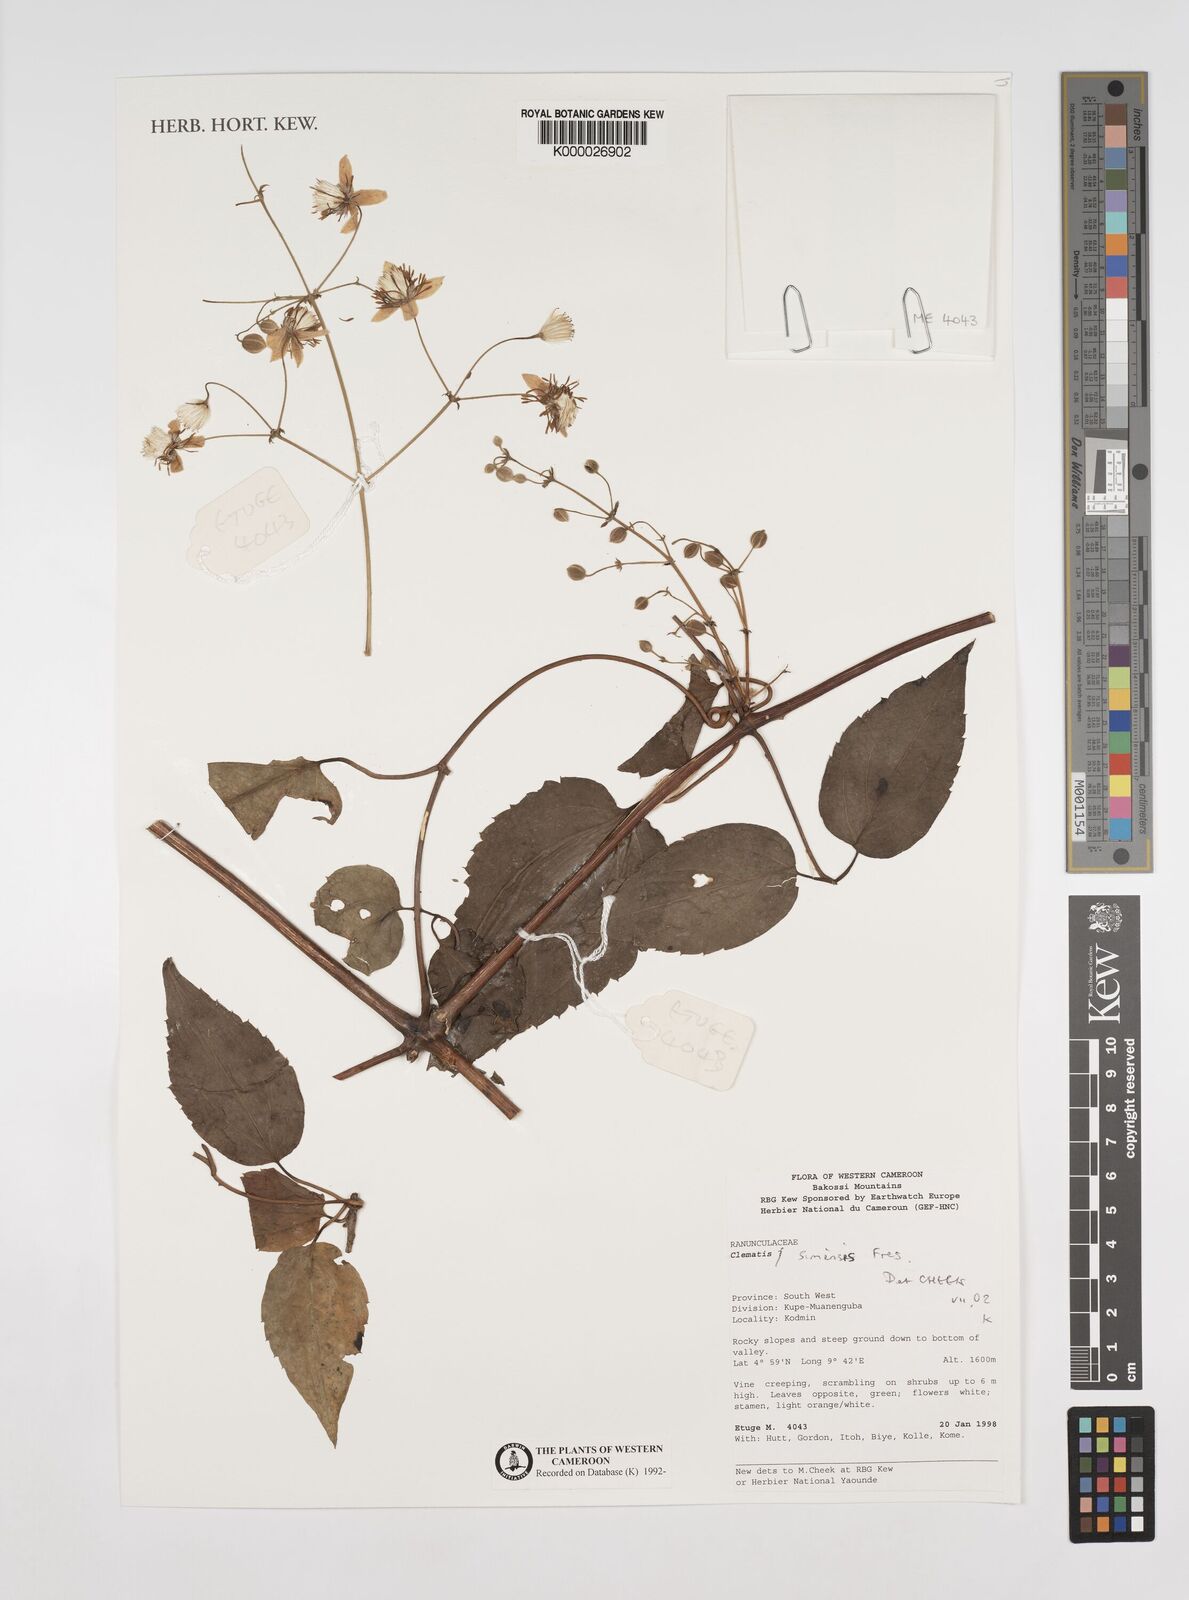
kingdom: Plantae
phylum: Tracheophyta
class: Magnoliopsida
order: Ranunculales
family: Ranunculaceae
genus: Clematis
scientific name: Clematis simensis
